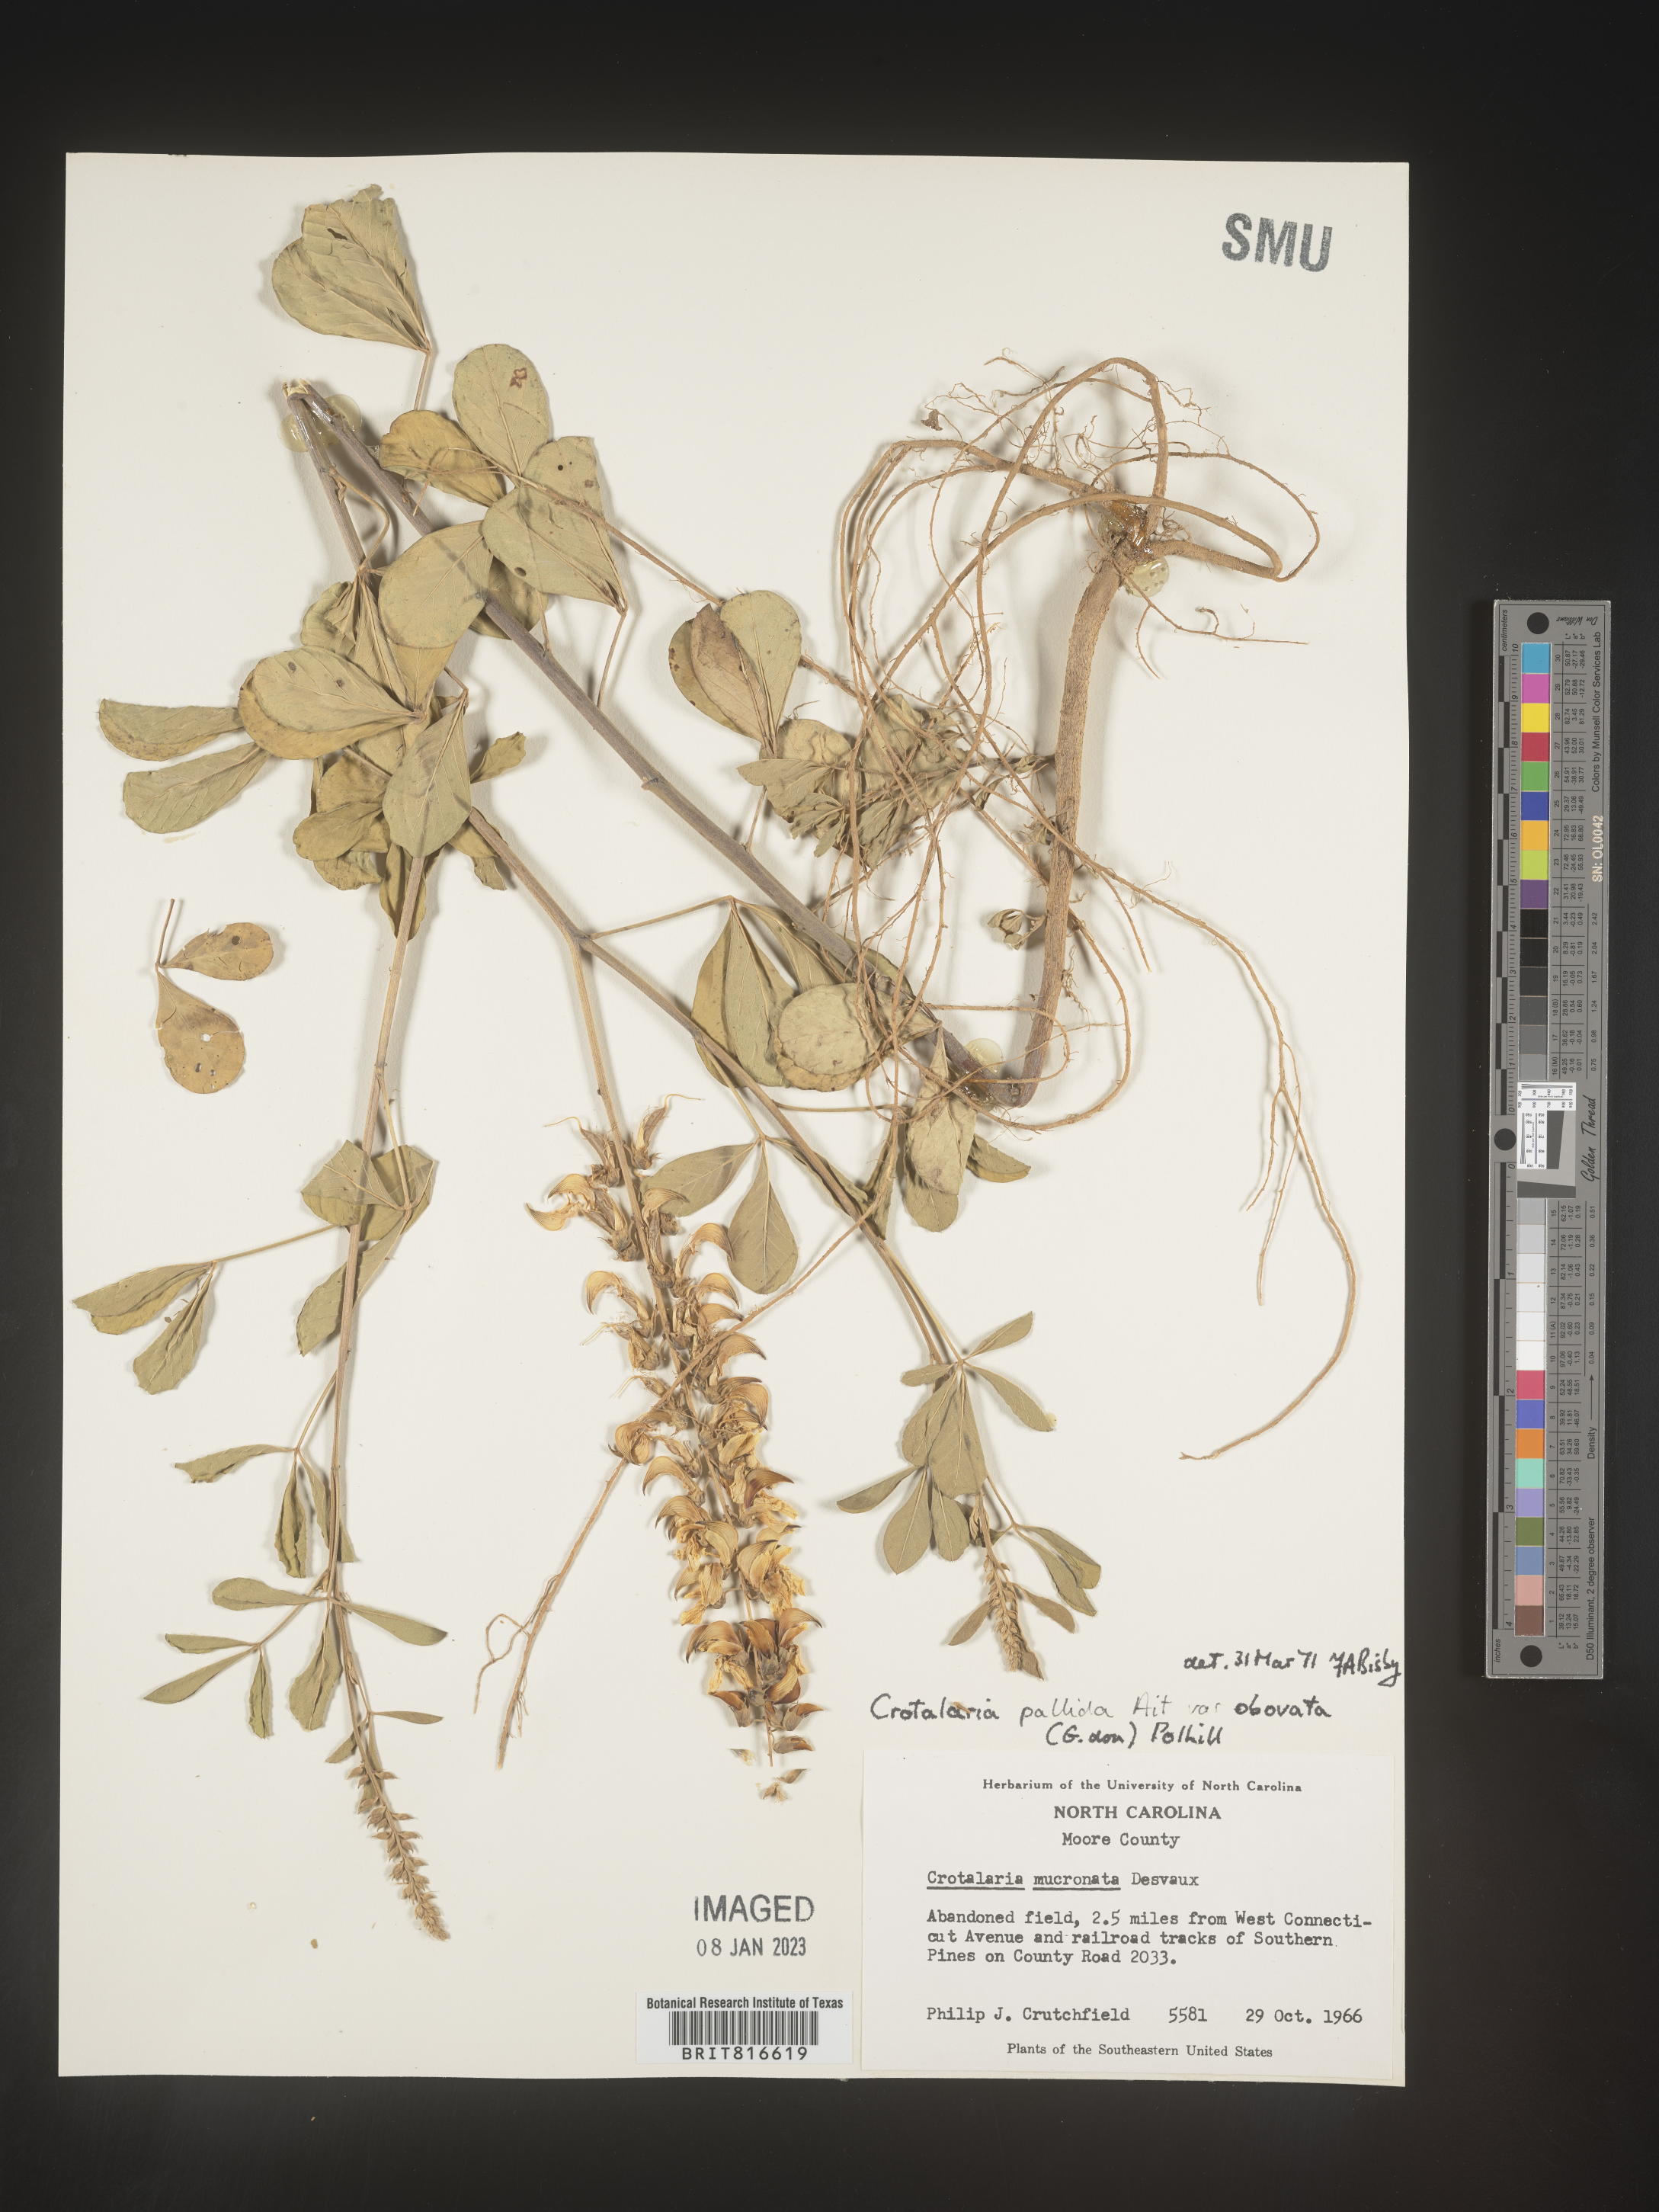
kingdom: Plantae
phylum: Tracheophyta
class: Magnoliopsida
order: Fabales
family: Fabaceae
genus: Crotalaria
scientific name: Crotalaria linifolia
